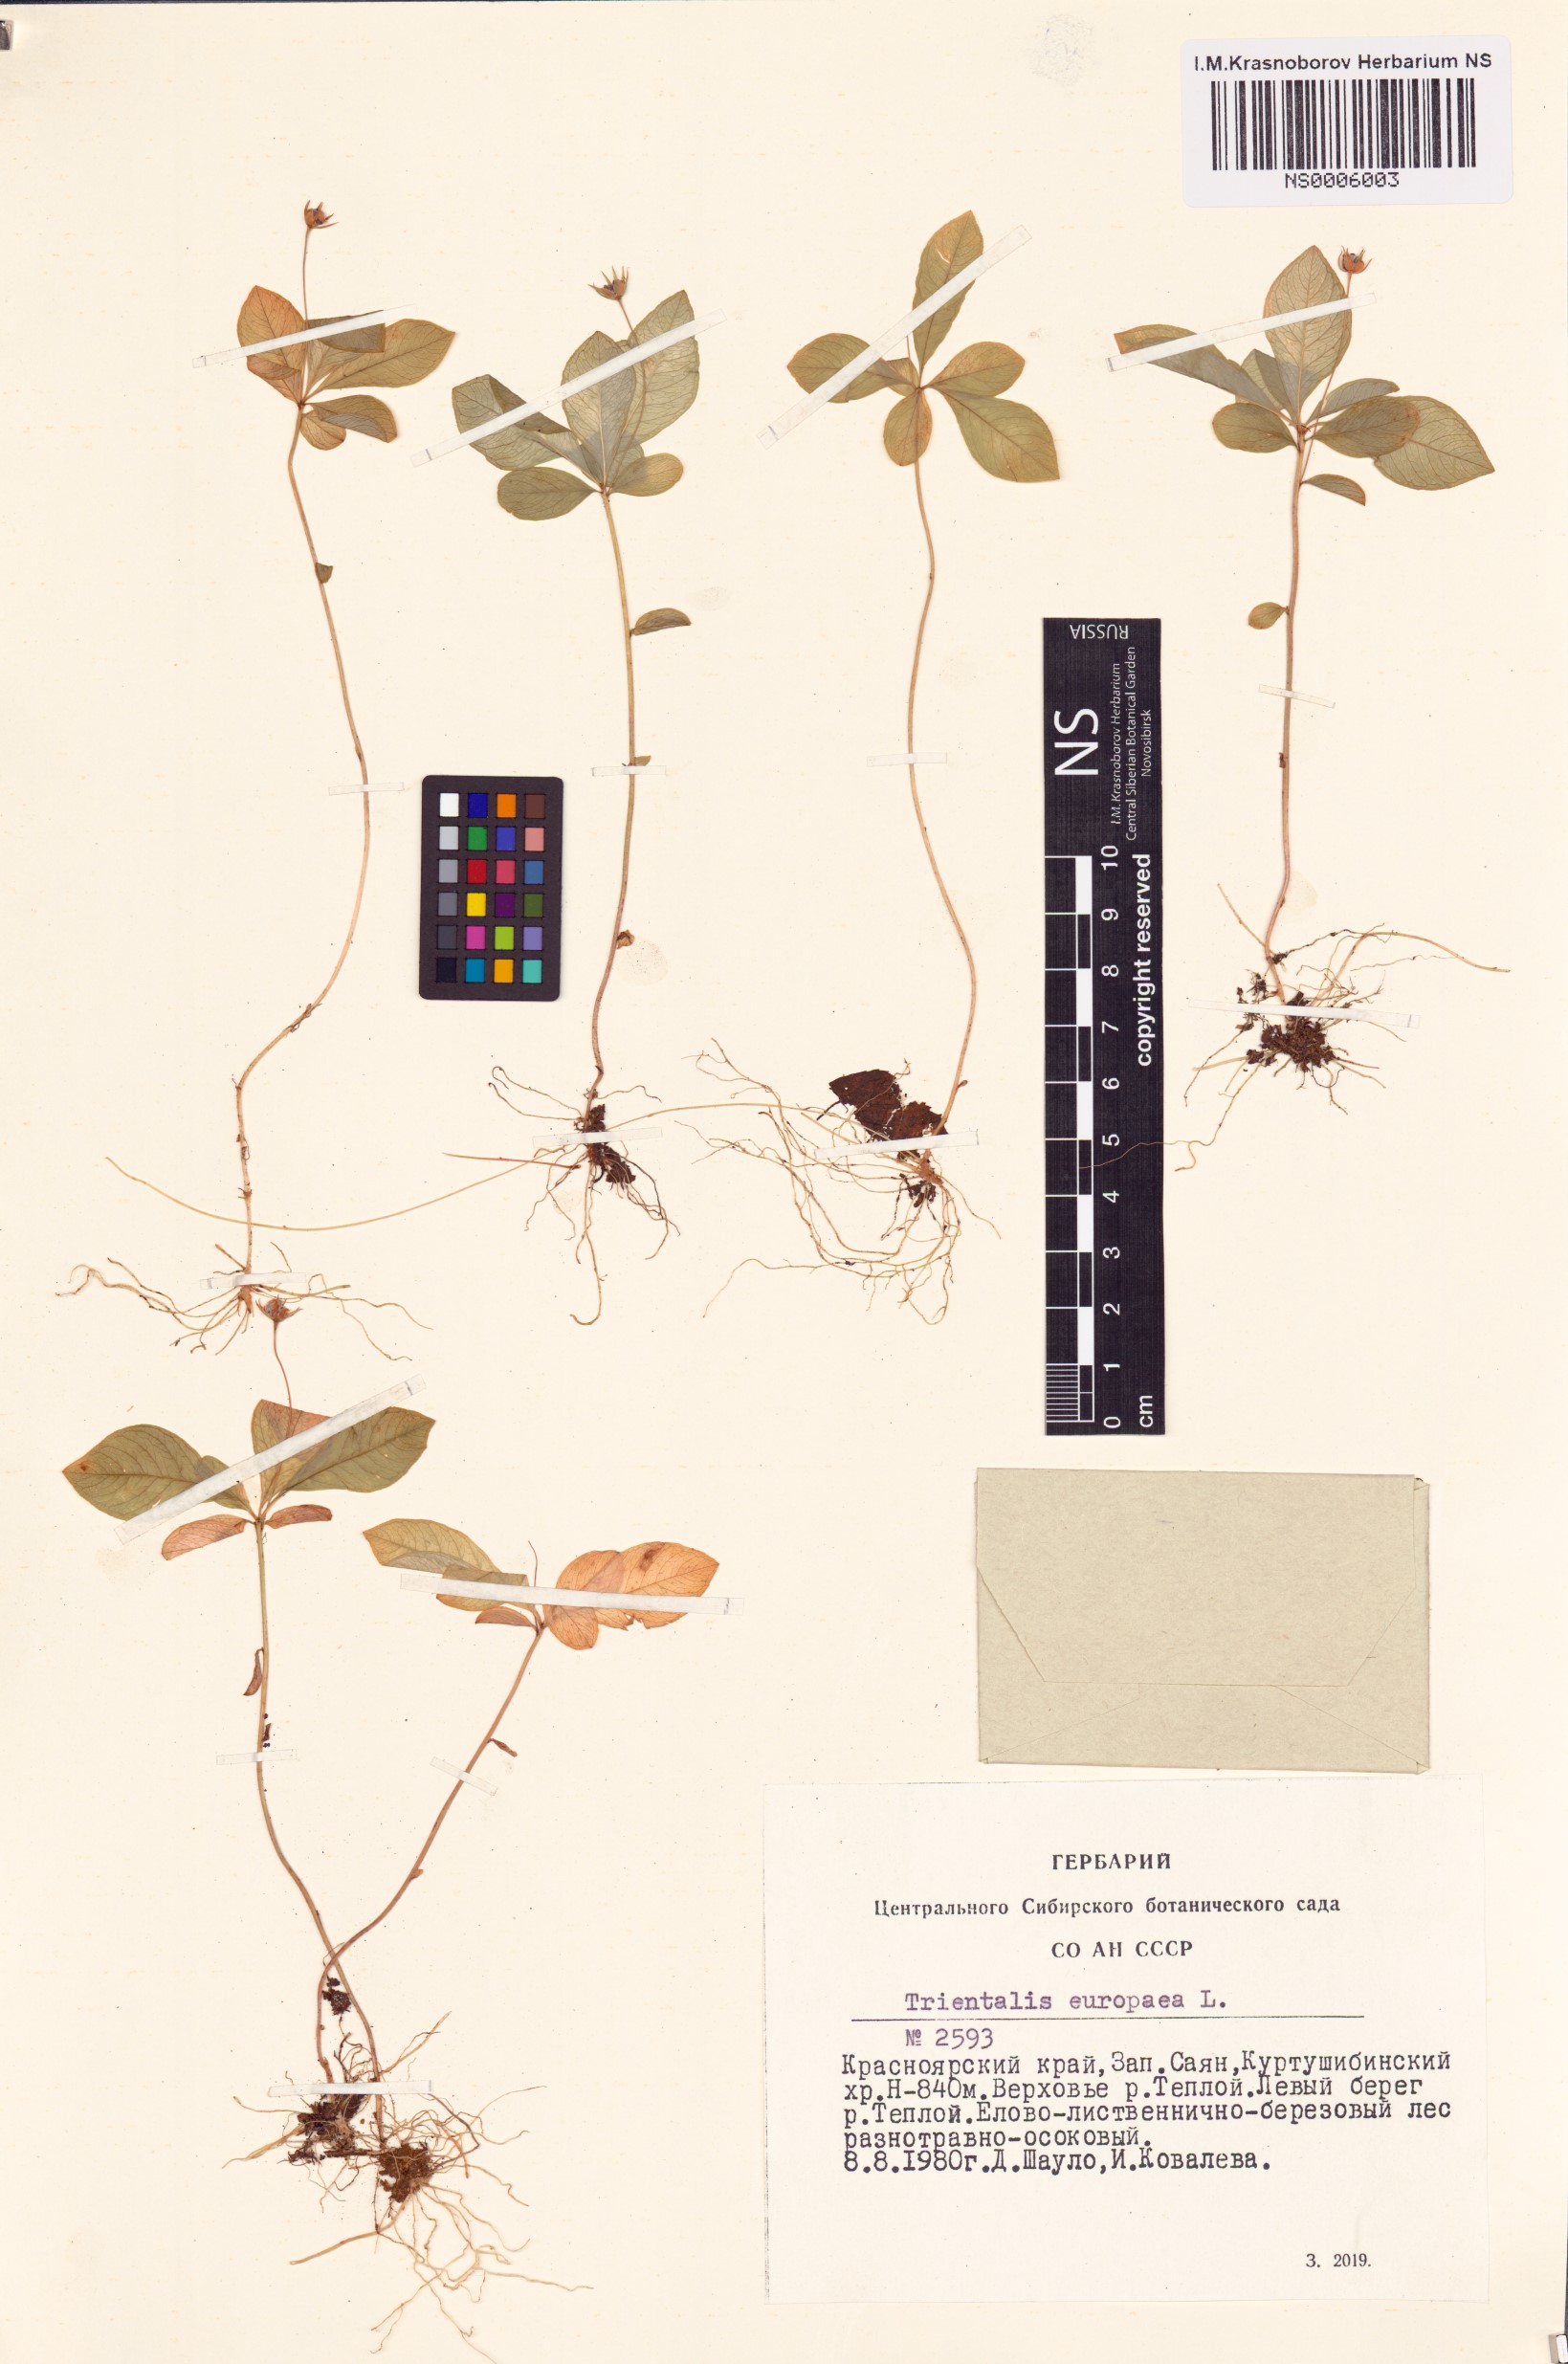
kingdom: Plantae
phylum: Tracheophyta
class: Magnoliopsida
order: Ericales
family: Primulaceae
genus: Lysimachia
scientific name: Lysimachia europaea
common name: Arctic starflower
